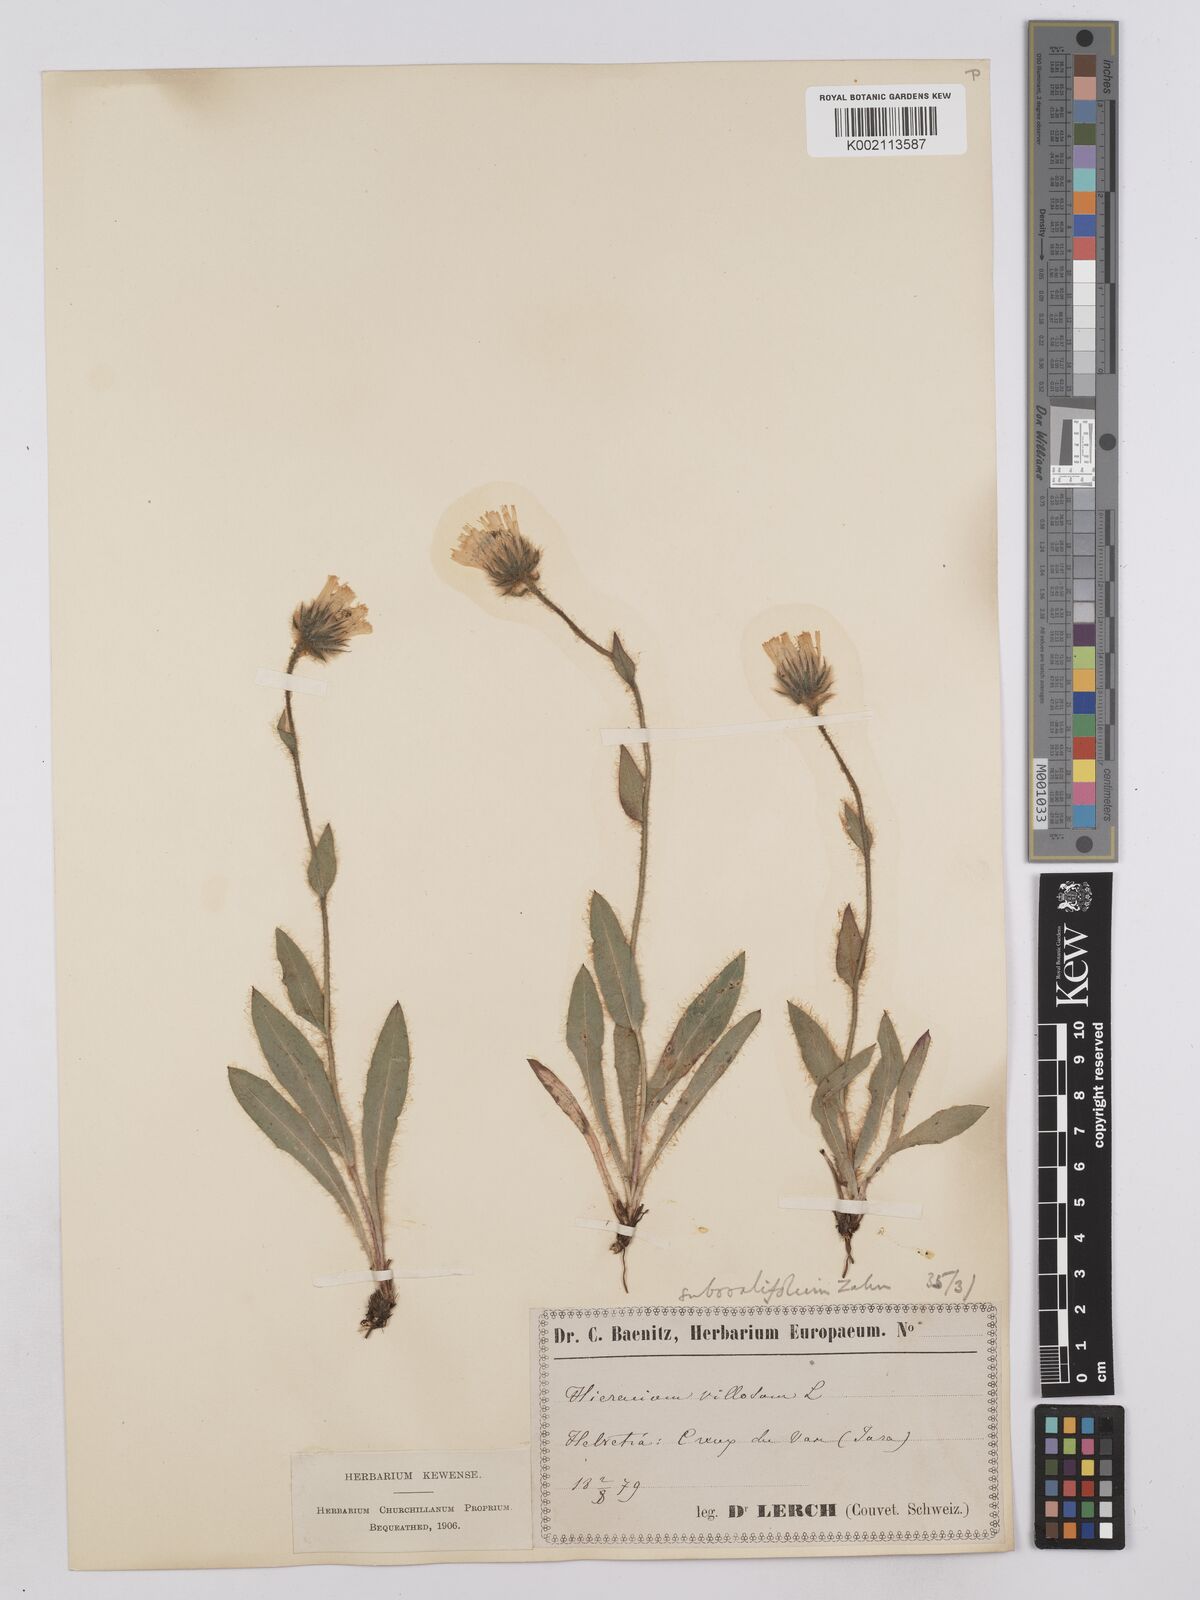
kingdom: Plantae
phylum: Tracheophyta
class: Magnoliopsida
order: Asterales
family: Asteraceae
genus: Hieracium
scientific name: Hieracium villosum
